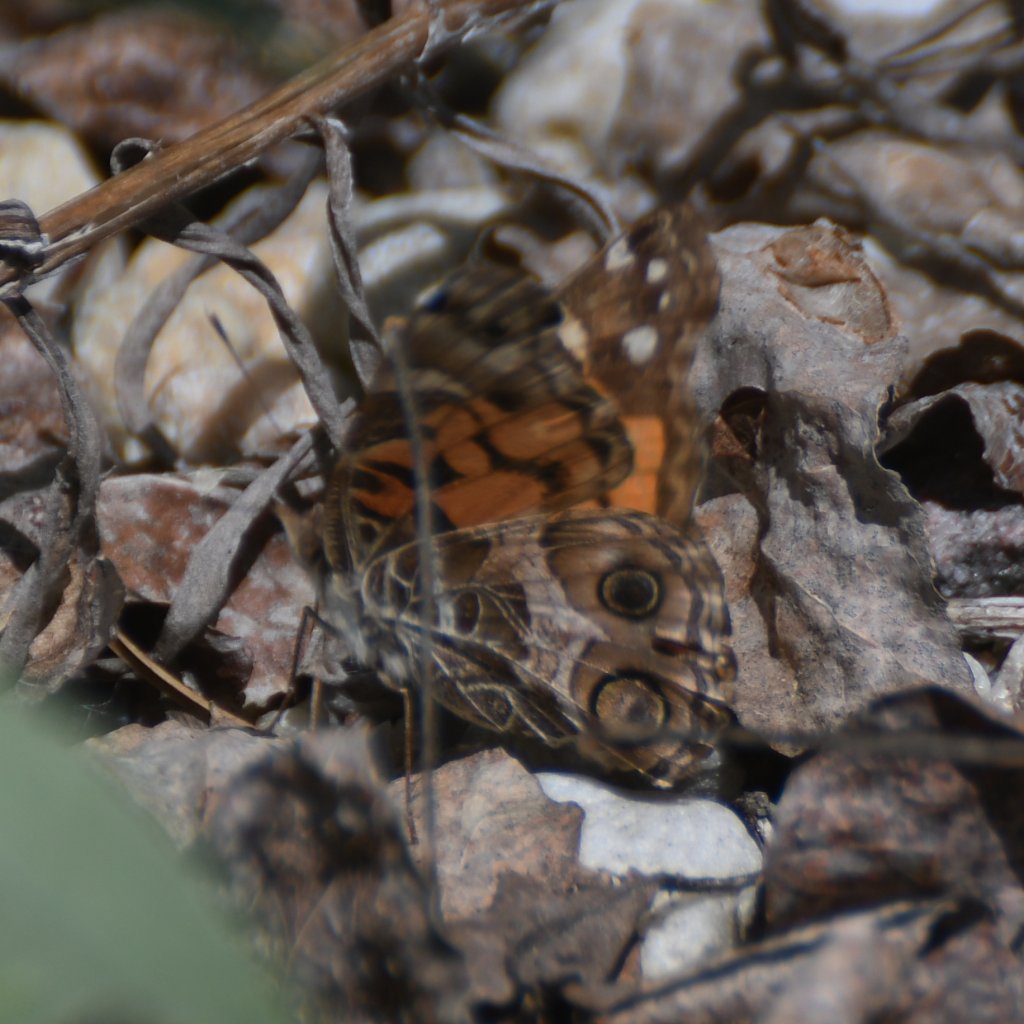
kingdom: Animalia
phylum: Arthropoda
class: Insecta
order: Lepidoptera
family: Nymphalidae
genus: Vanessa
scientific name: Vanessa virginiensis
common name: American Lady
